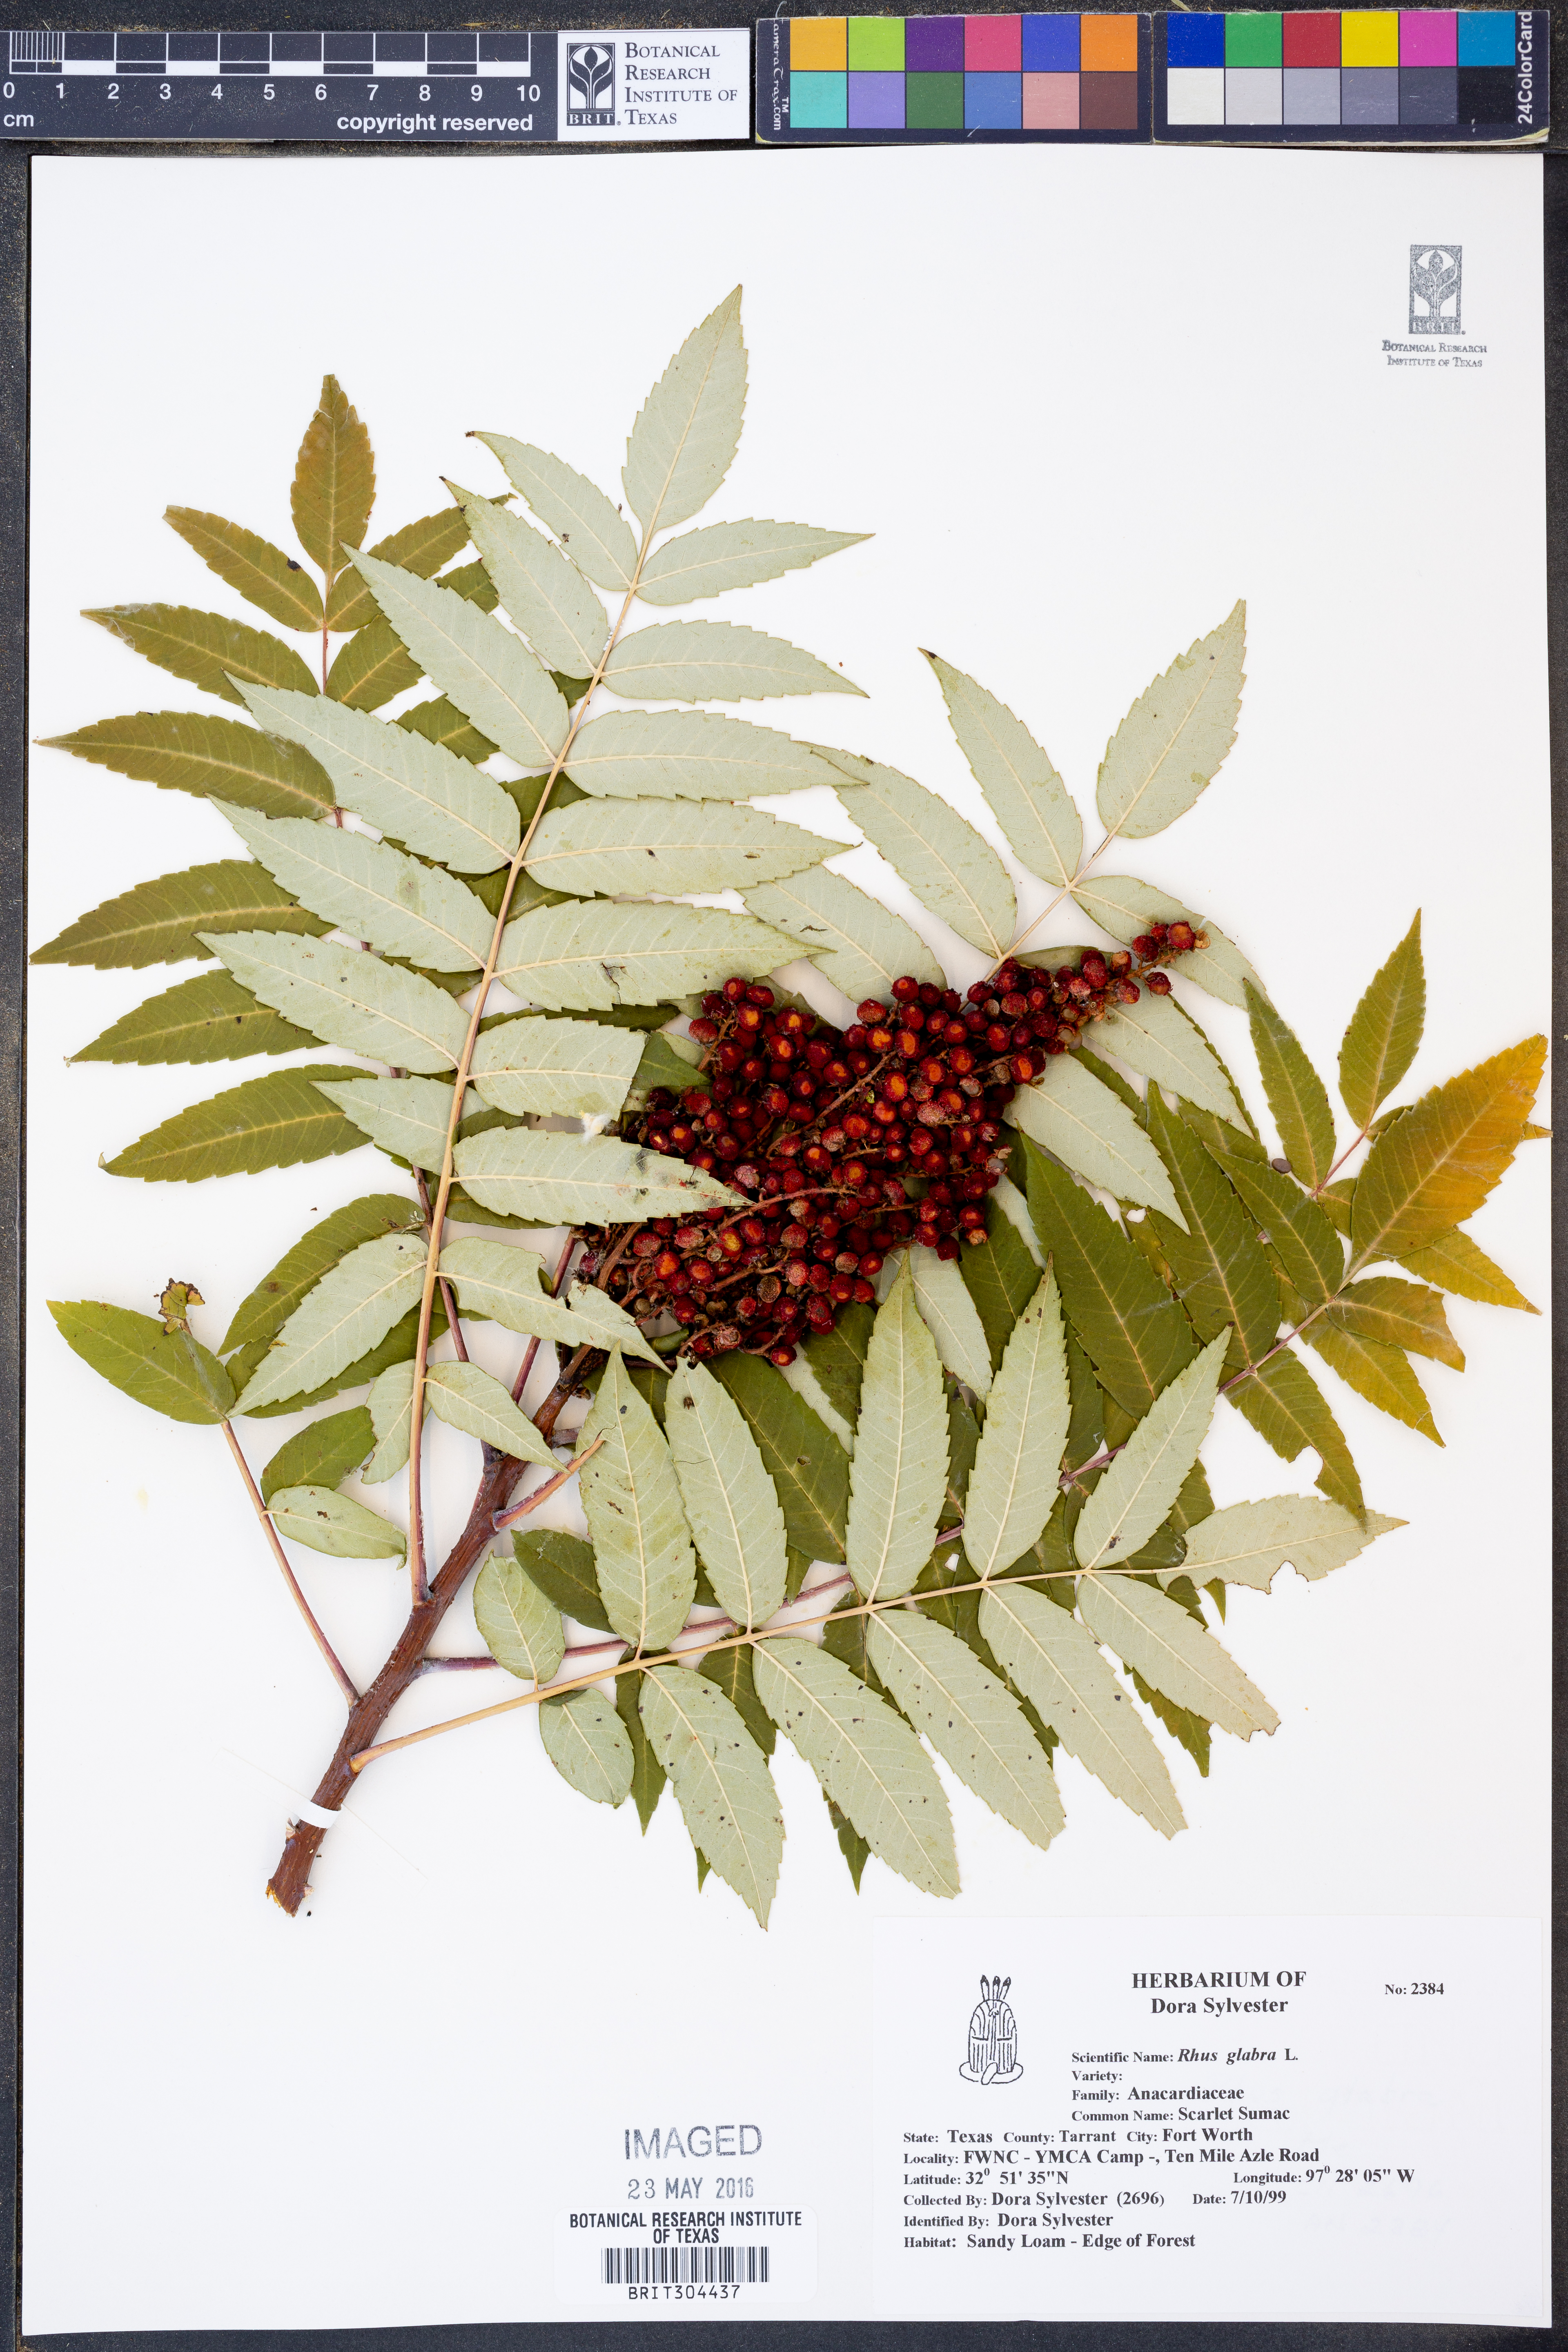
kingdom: Plantae
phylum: Tracheophyta
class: Magnoliopsida
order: Sapindales
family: Anacardiaceae
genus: Rhus
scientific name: Rhus glabra
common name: Scarlet sumac
